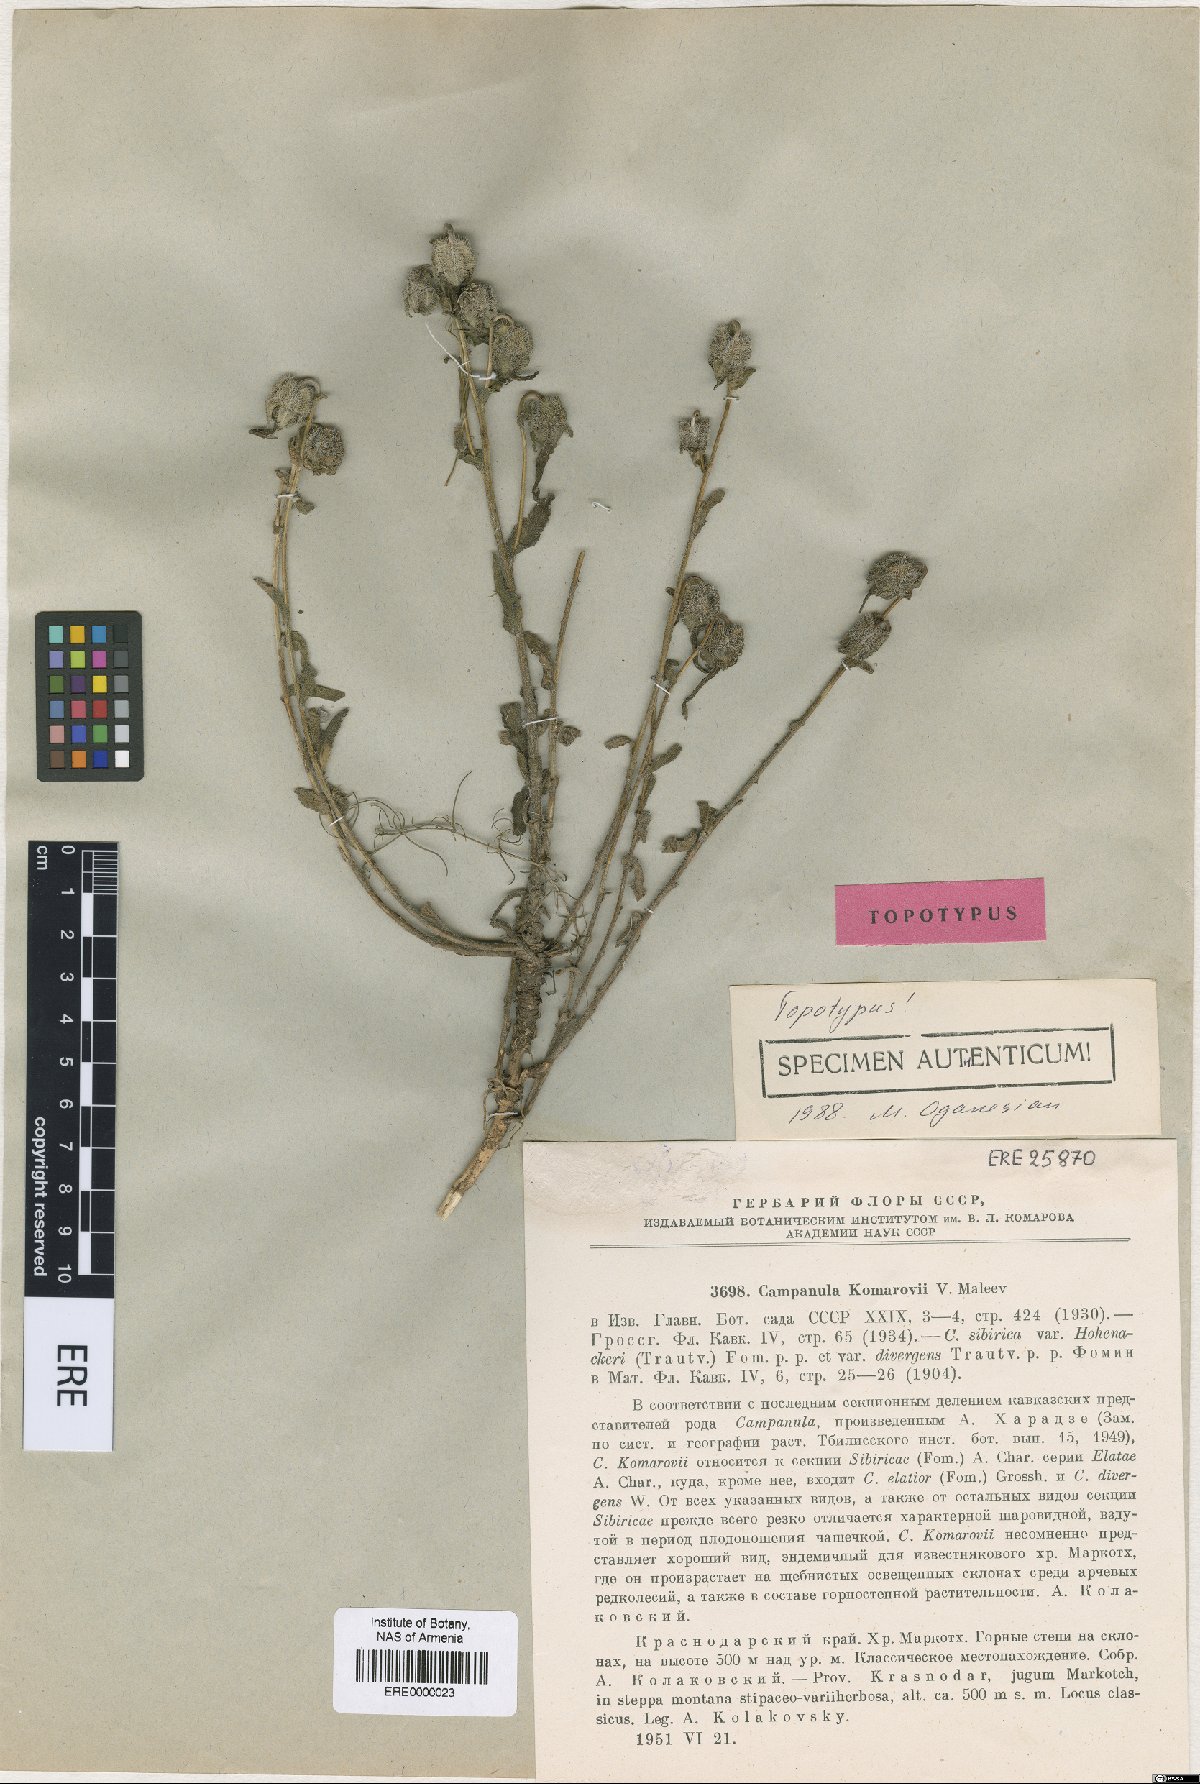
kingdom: Plantae
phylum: Tracheophyta
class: Magnoliopsida
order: Asterales
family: Campanulaceae
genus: Campanula
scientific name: Campanula komarovii
